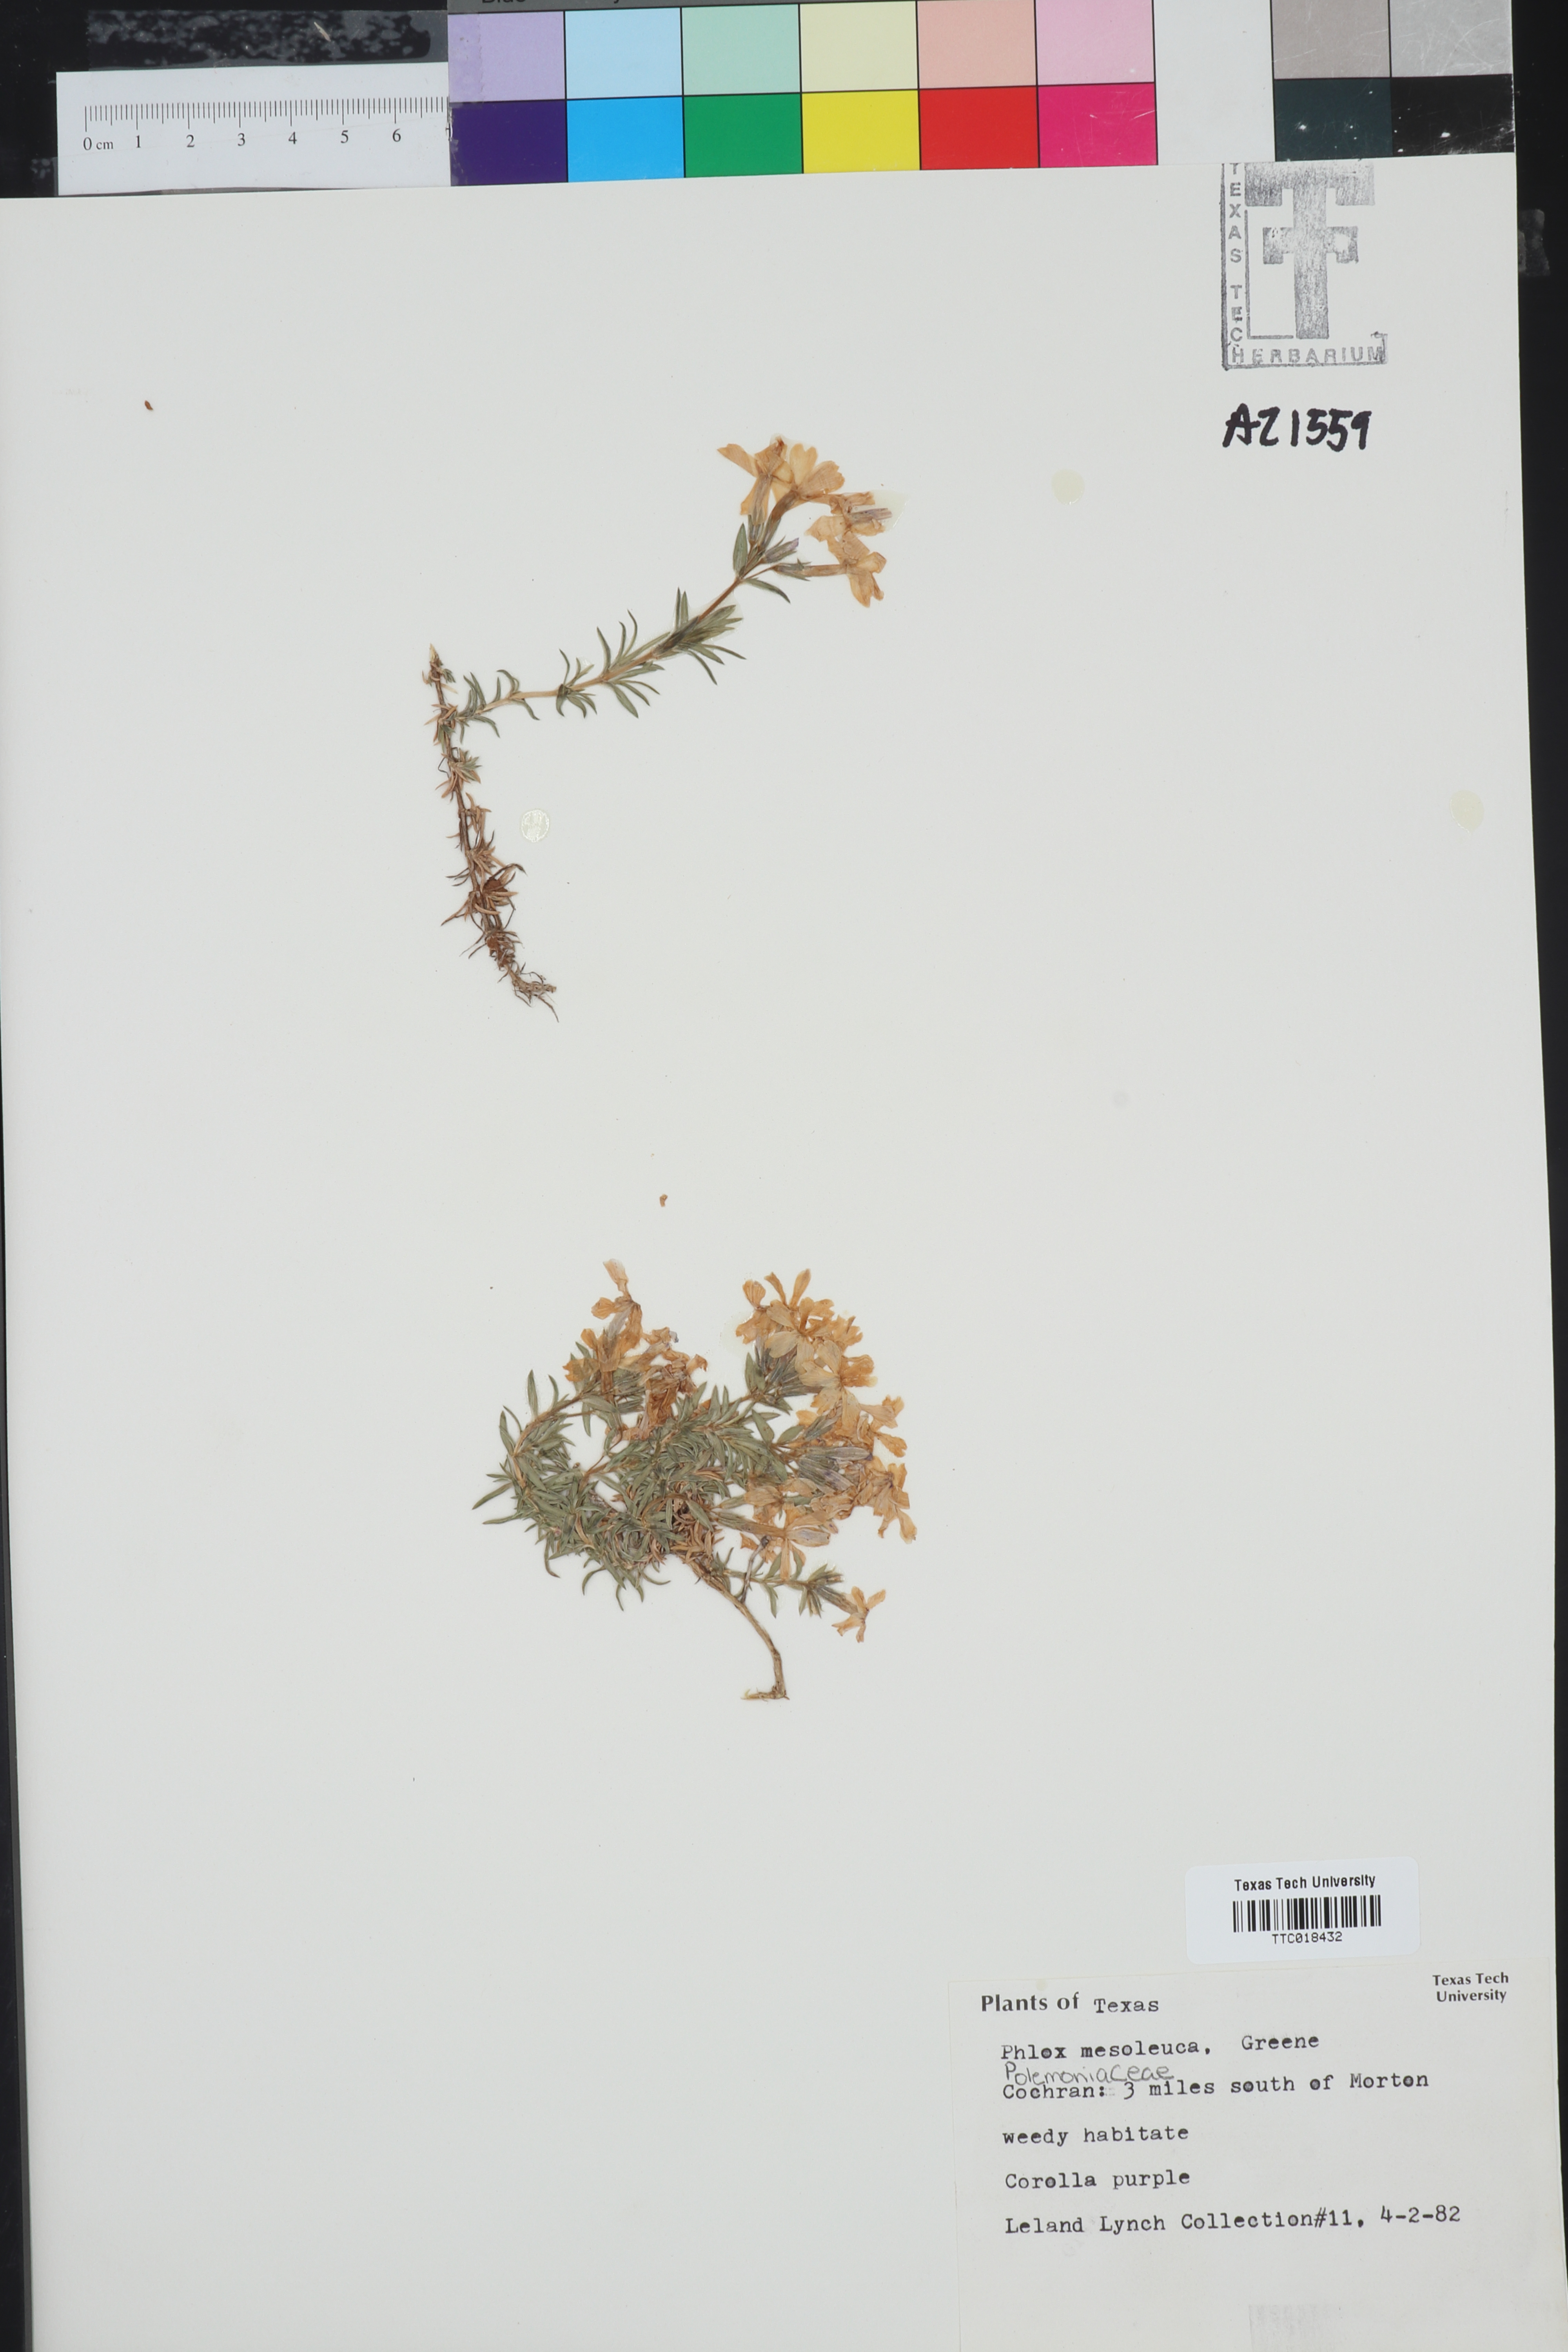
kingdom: Plantae
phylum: Tracheophyta
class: Magnoliopsida
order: Ericales
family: Polemoniaceae
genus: Phlox
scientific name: Phlox mesoleuca
